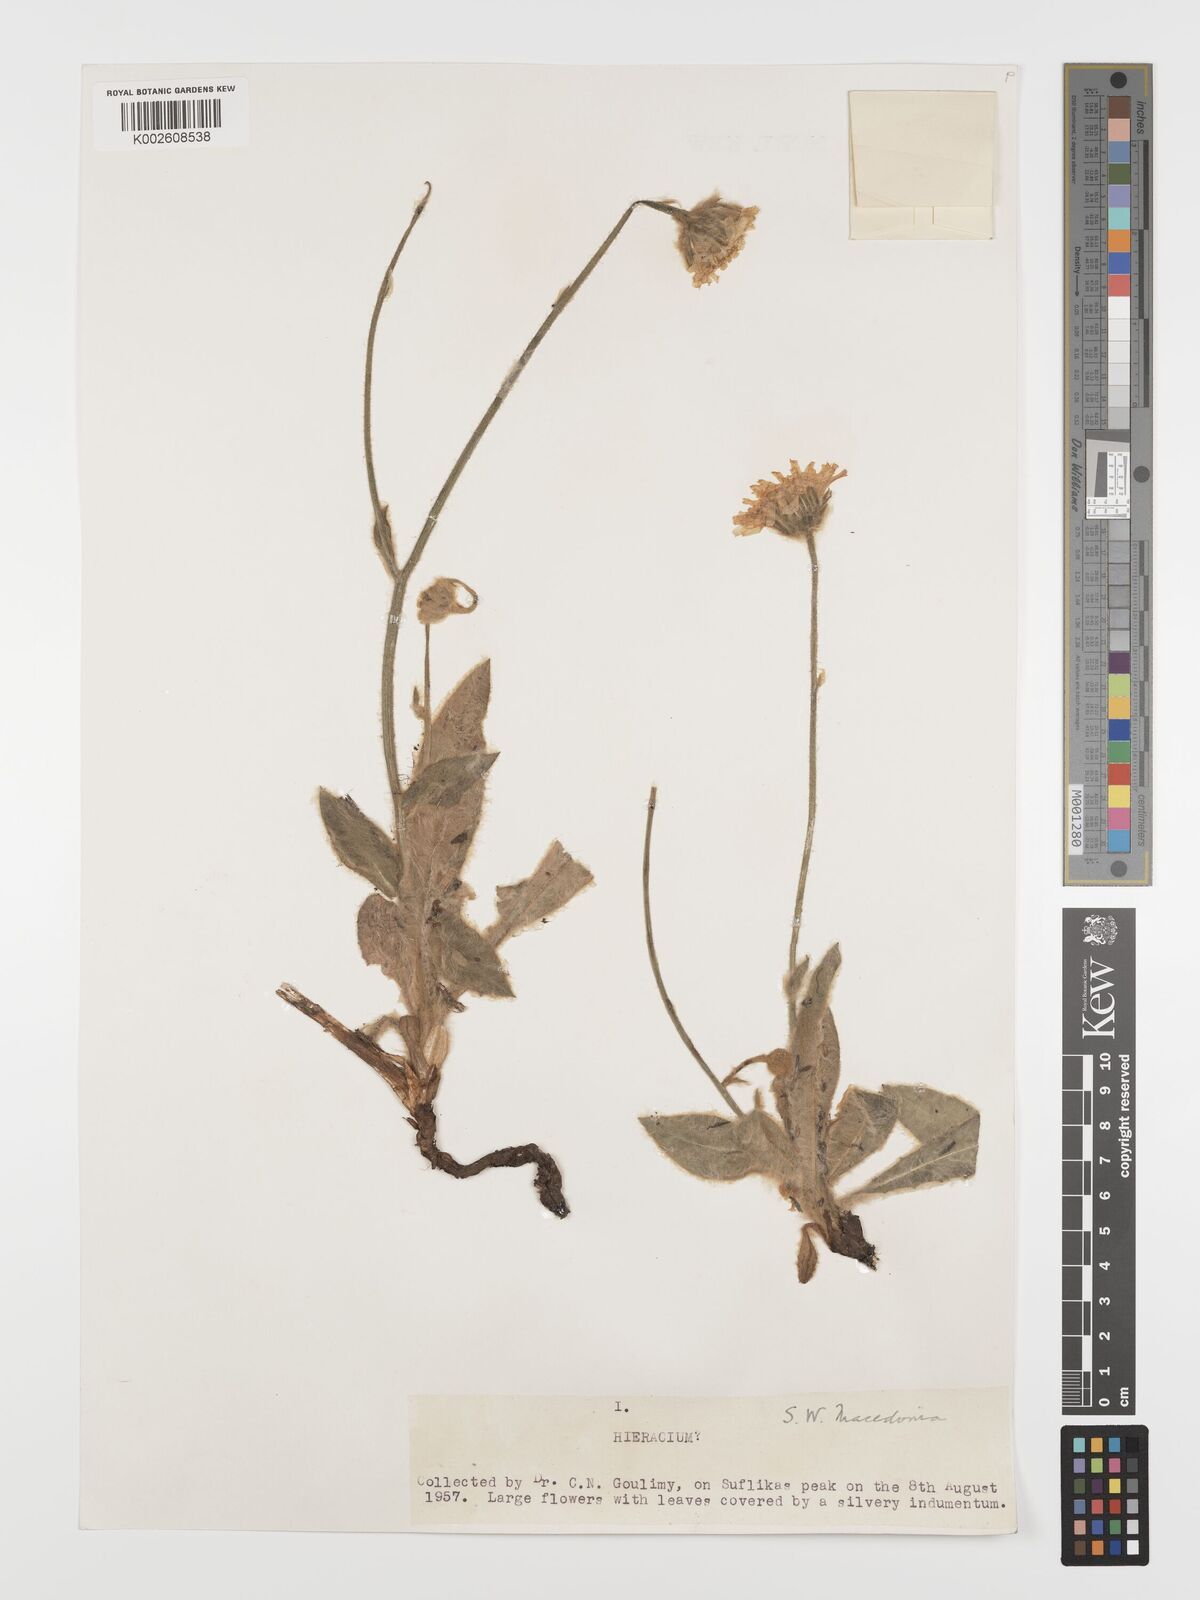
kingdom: Plantae
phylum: Tracheophyta
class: Magnoliopsida
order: Asterales
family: Asteraceae
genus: Hieracium
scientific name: Hieracium pannosum
